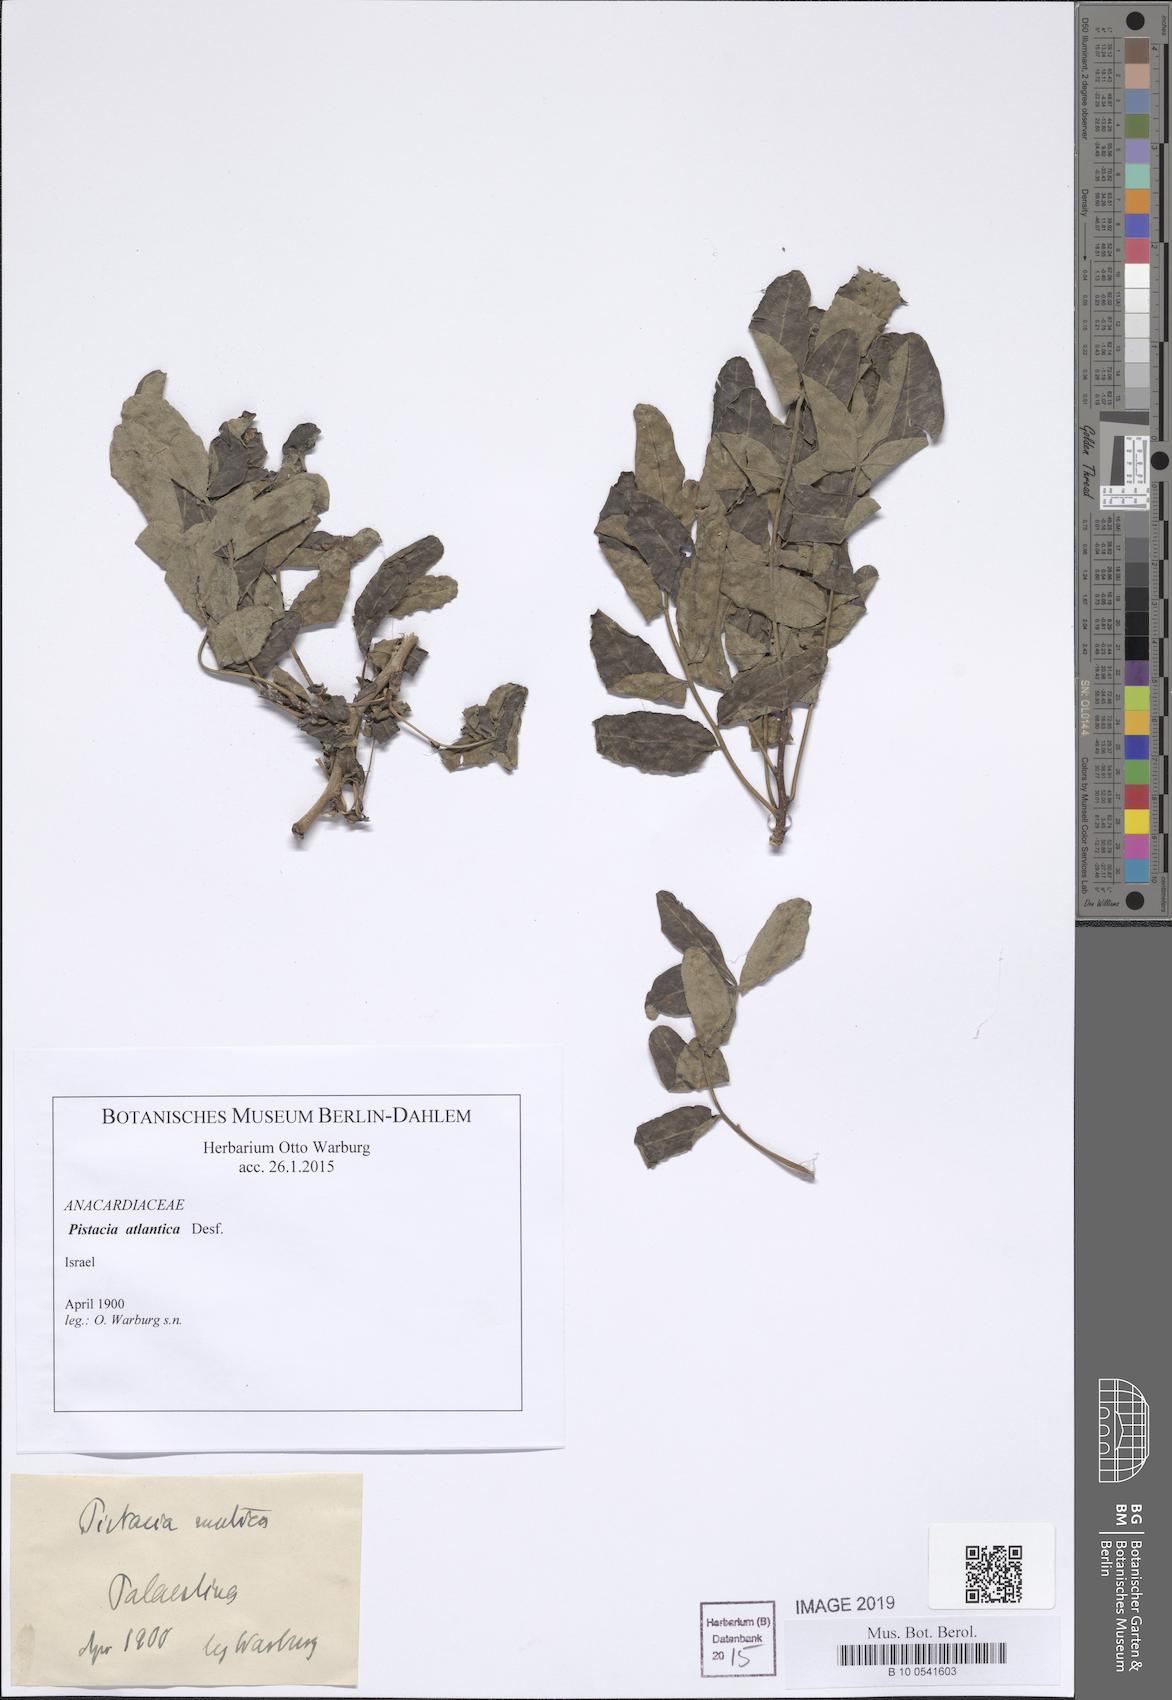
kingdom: Plantae
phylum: Tracheophyta
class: Magnoliopsida
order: Sapindales
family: Anacardiaceae
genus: Pistacia
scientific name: Pistacia atlantica
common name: Mt. atlas mastic tree
